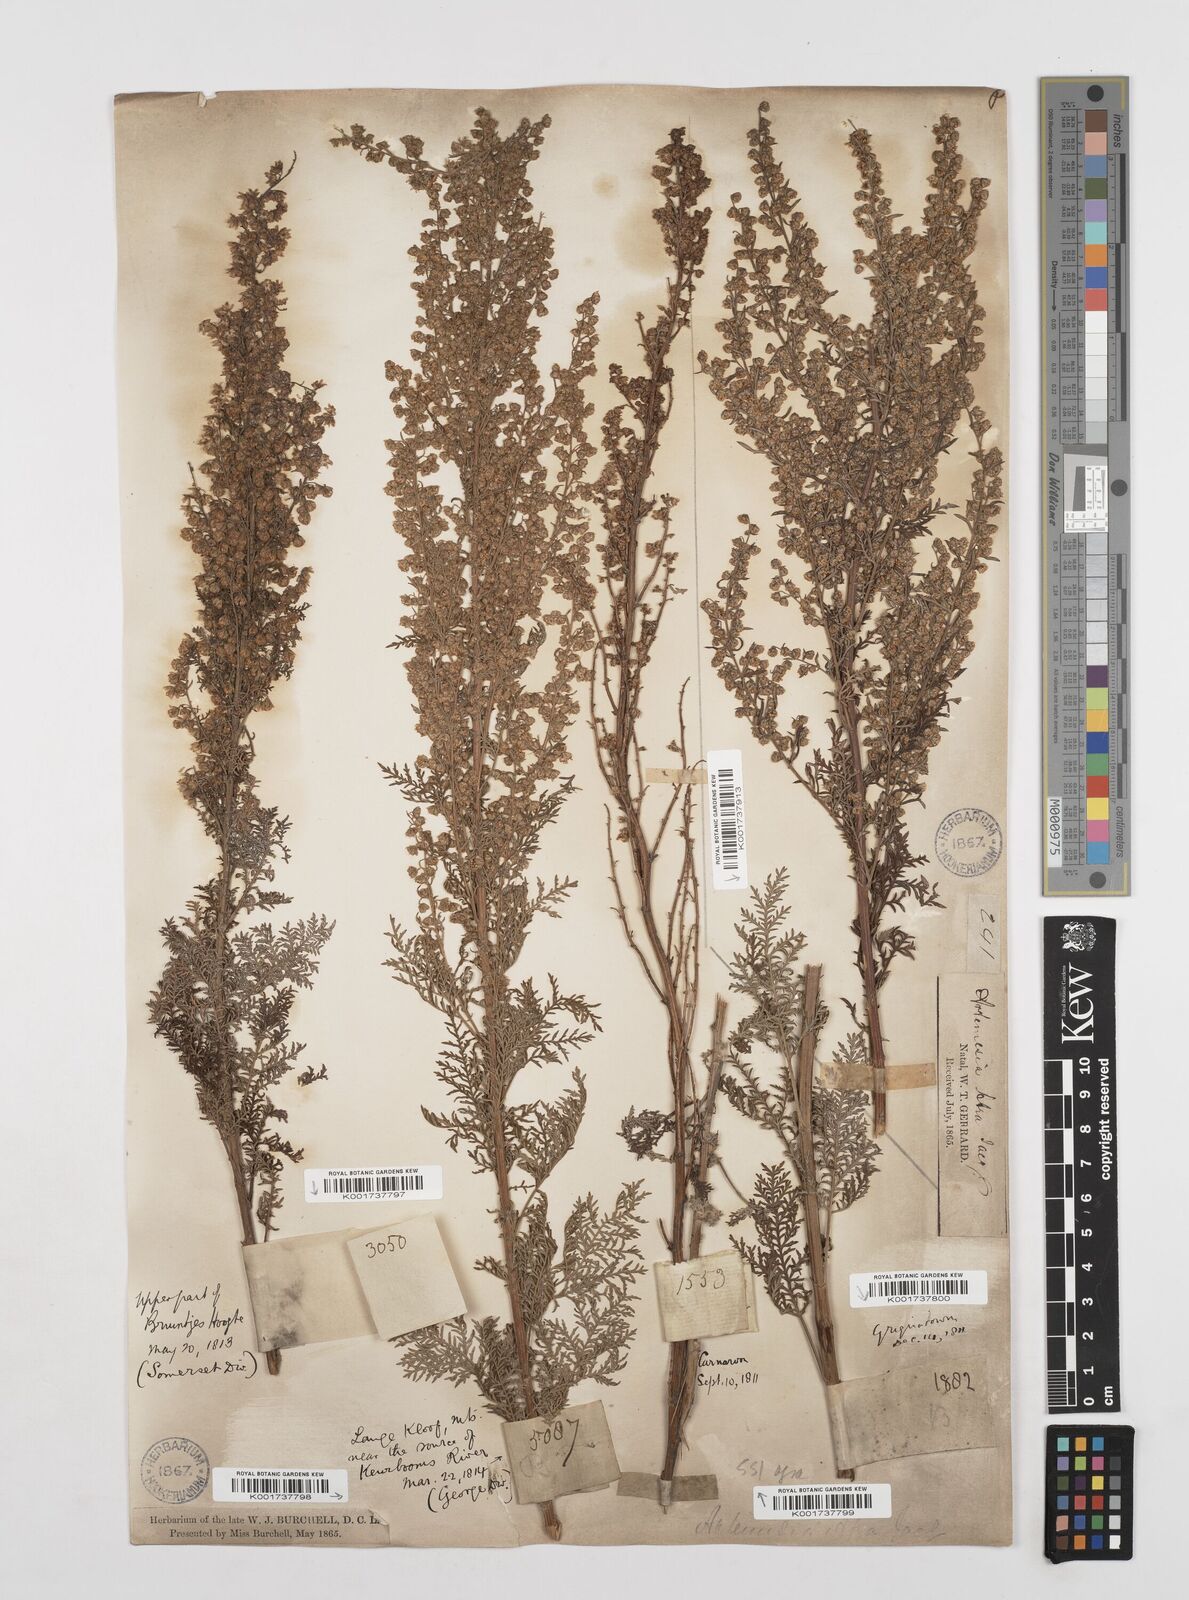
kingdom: Plantae
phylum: Tracheophyta
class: Magnoliopsida
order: Asterales
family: Asteraceae
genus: Artemisia
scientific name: Artemisia afra
